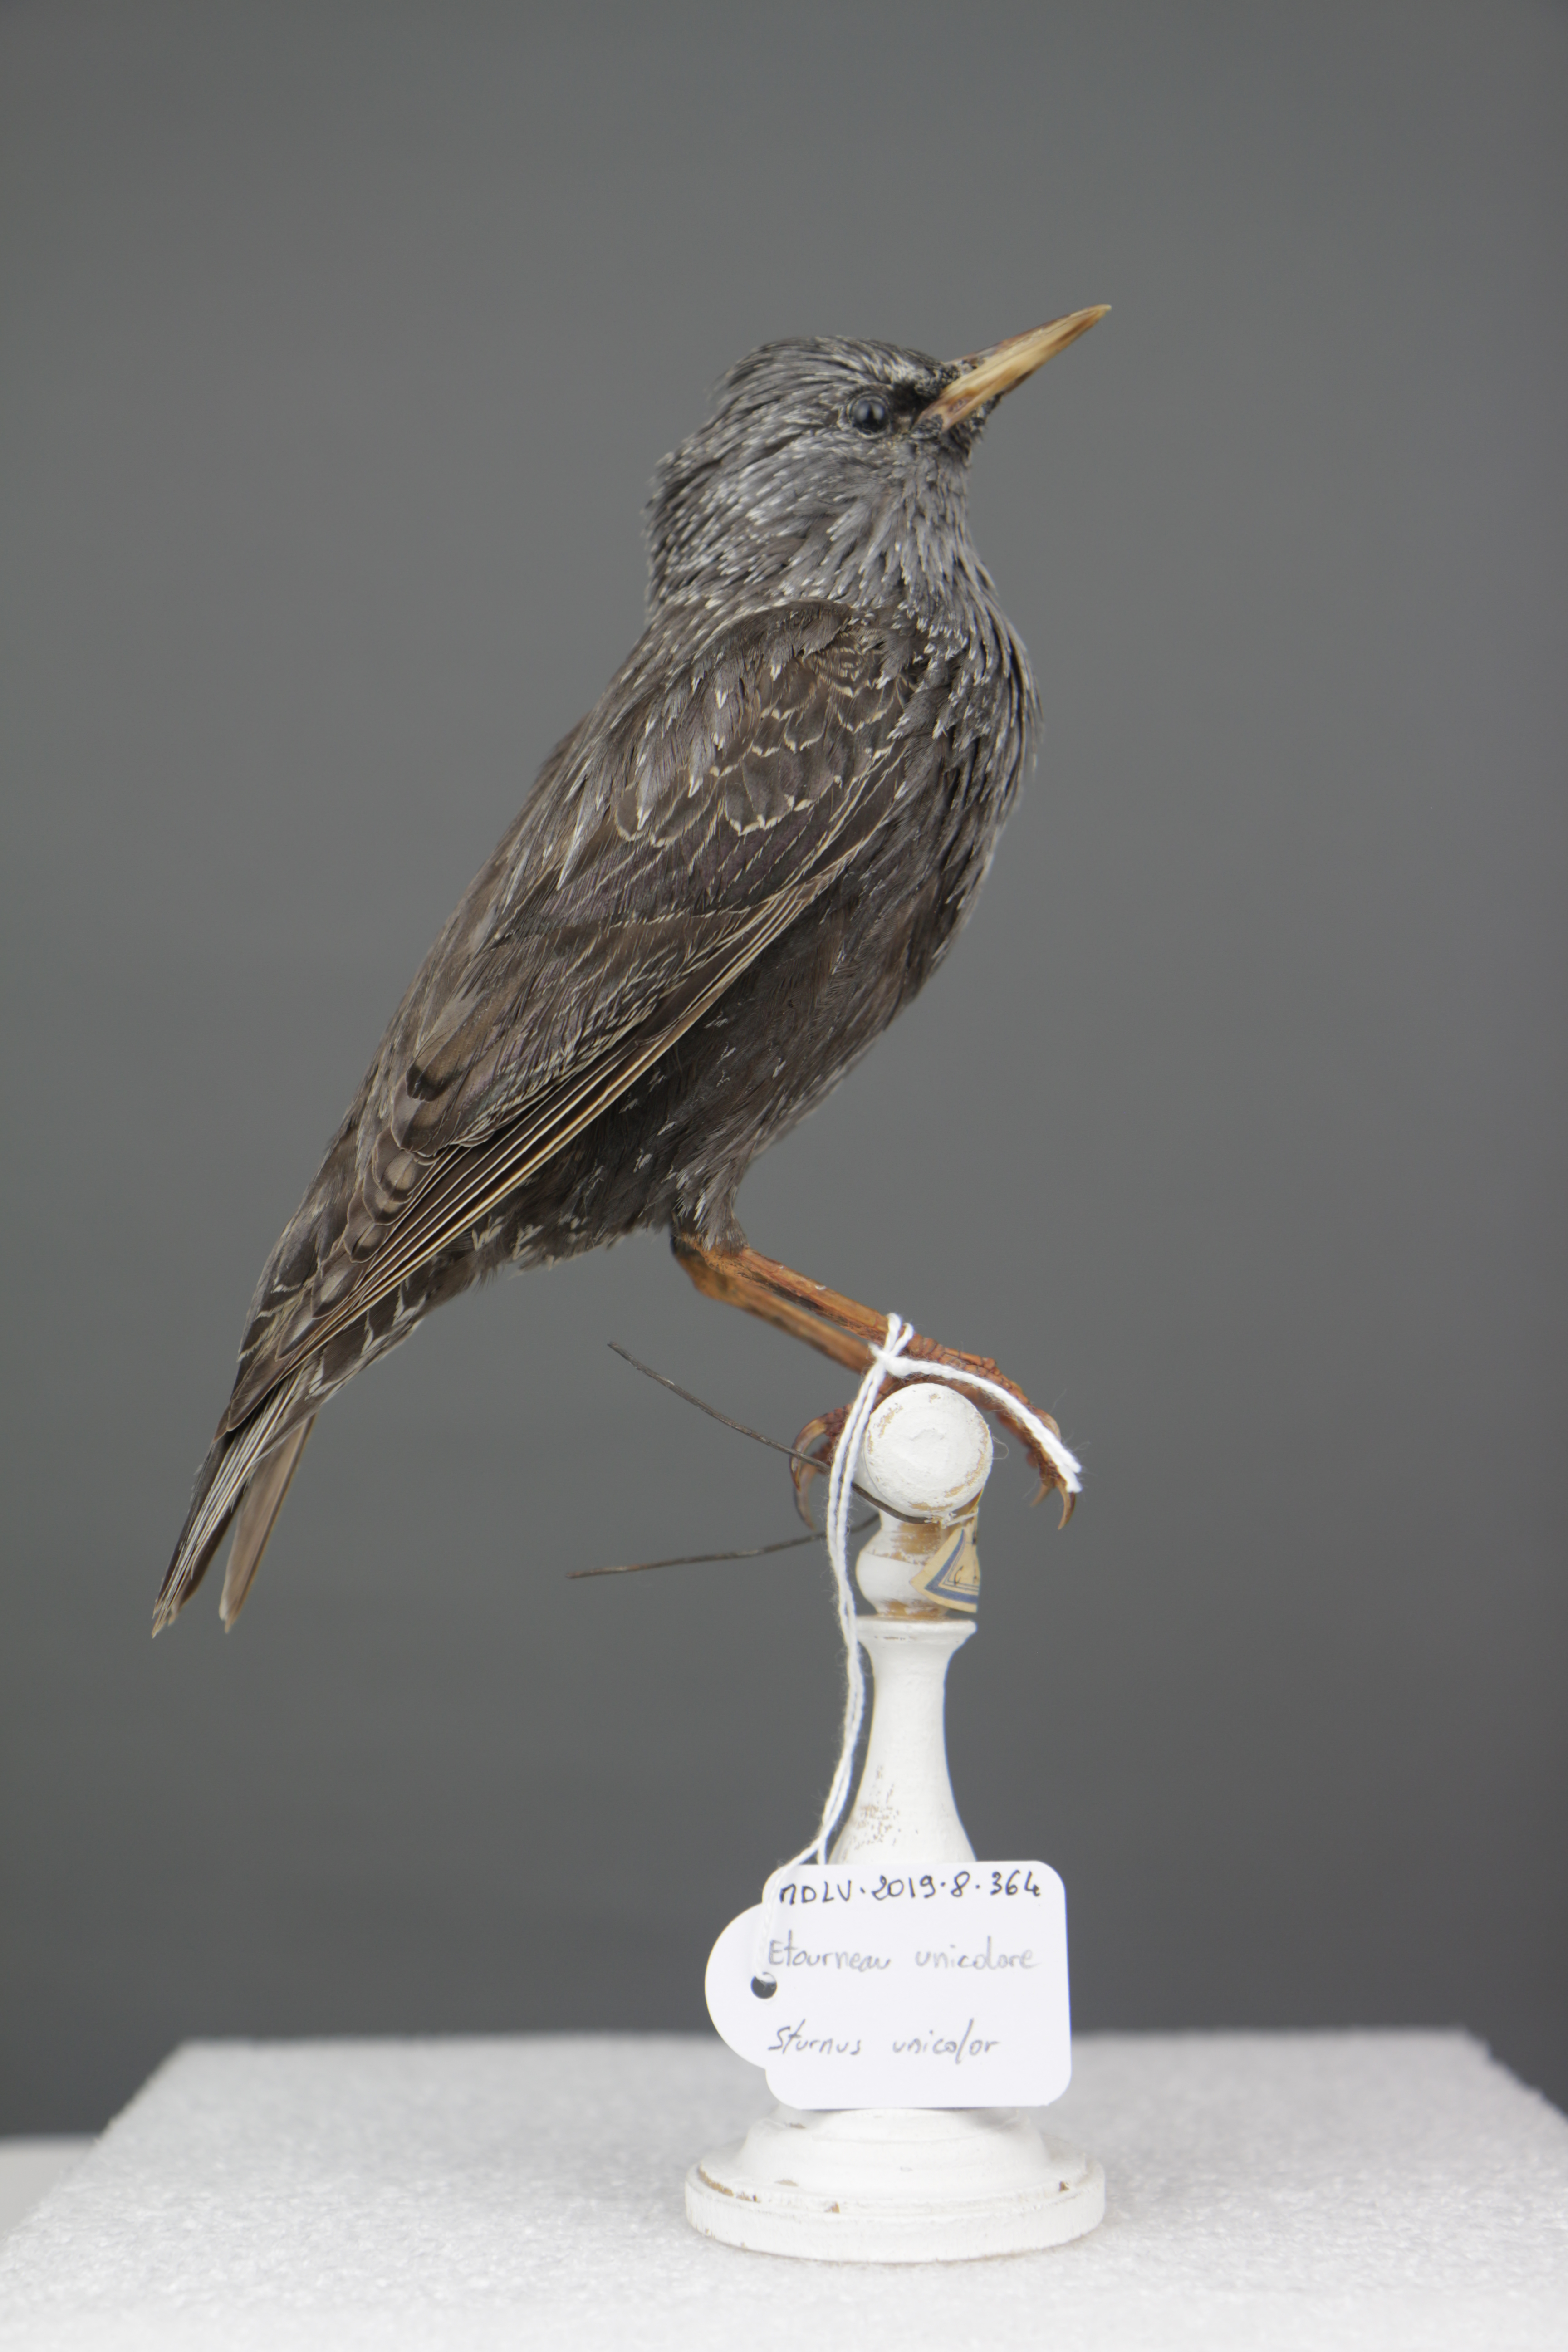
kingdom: Animalia
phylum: Chordata
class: Aves
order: Passeriformes
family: Sturnidae
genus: Sturnus
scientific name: Sturnus unicolor
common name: Spotless starling
